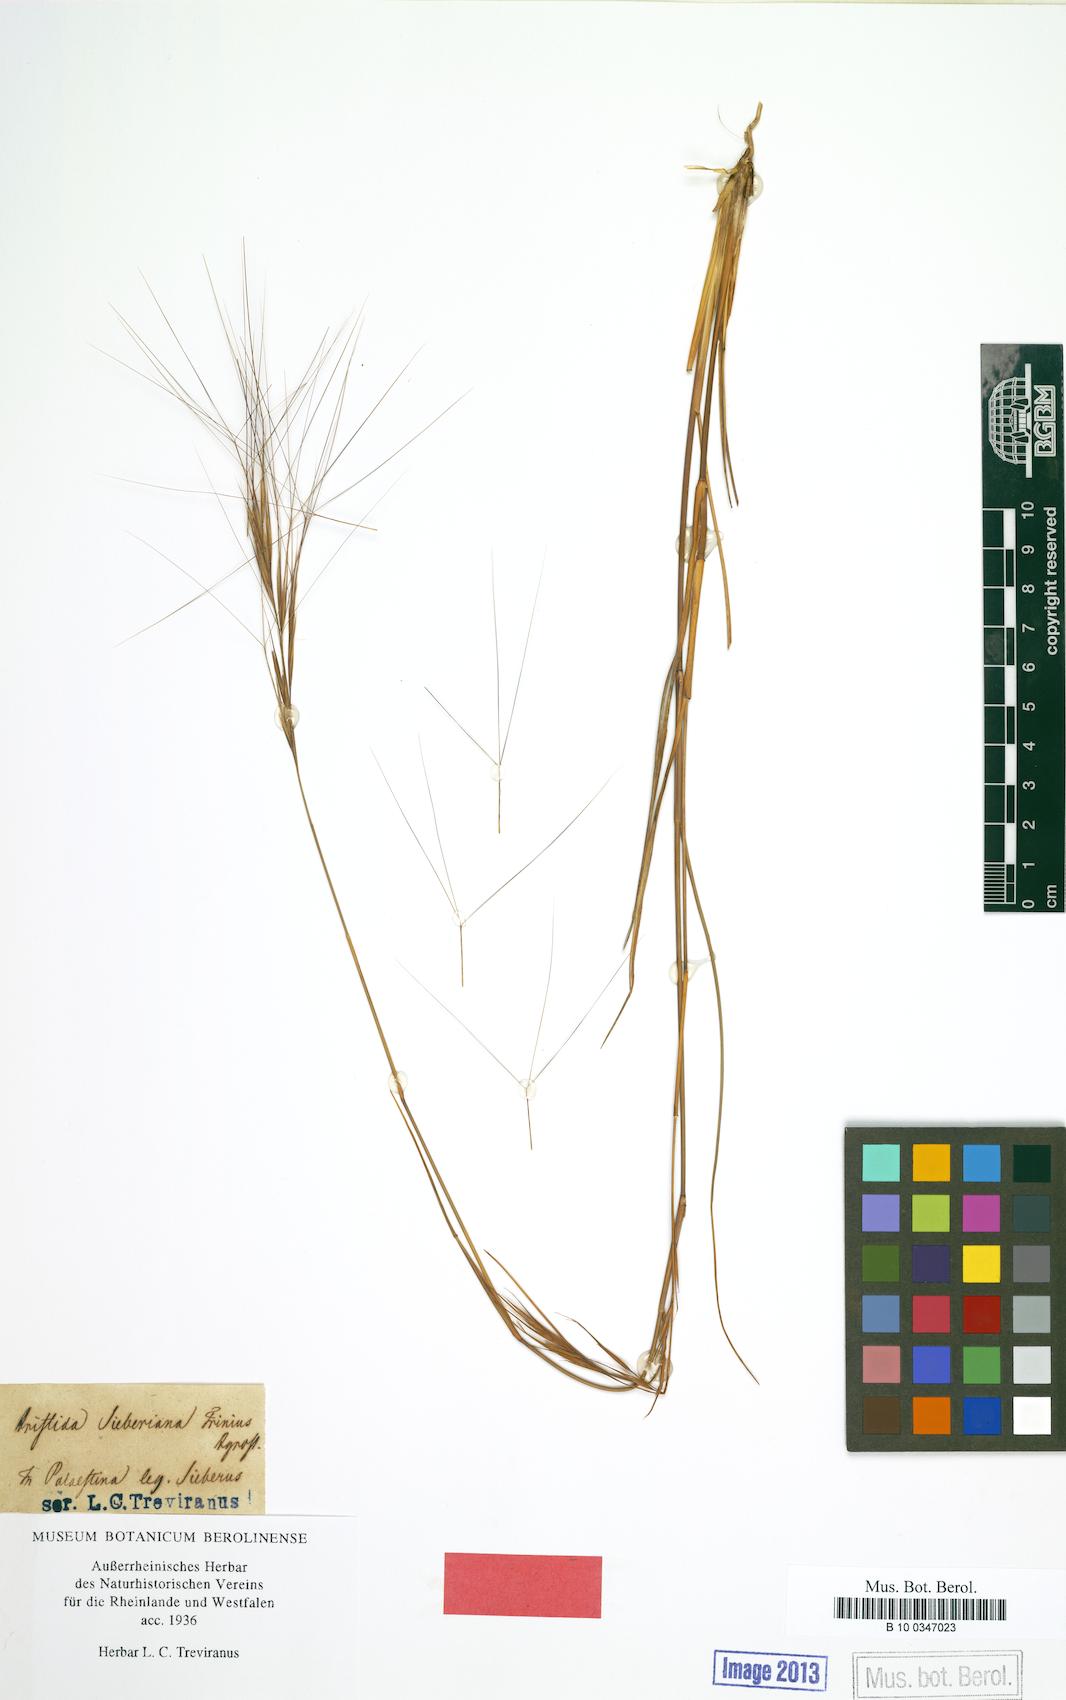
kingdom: Plantae
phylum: Tracheophyta
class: Liliopsida
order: Poales
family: Poaceae
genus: Aristida
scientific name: Aristida sieberiana
